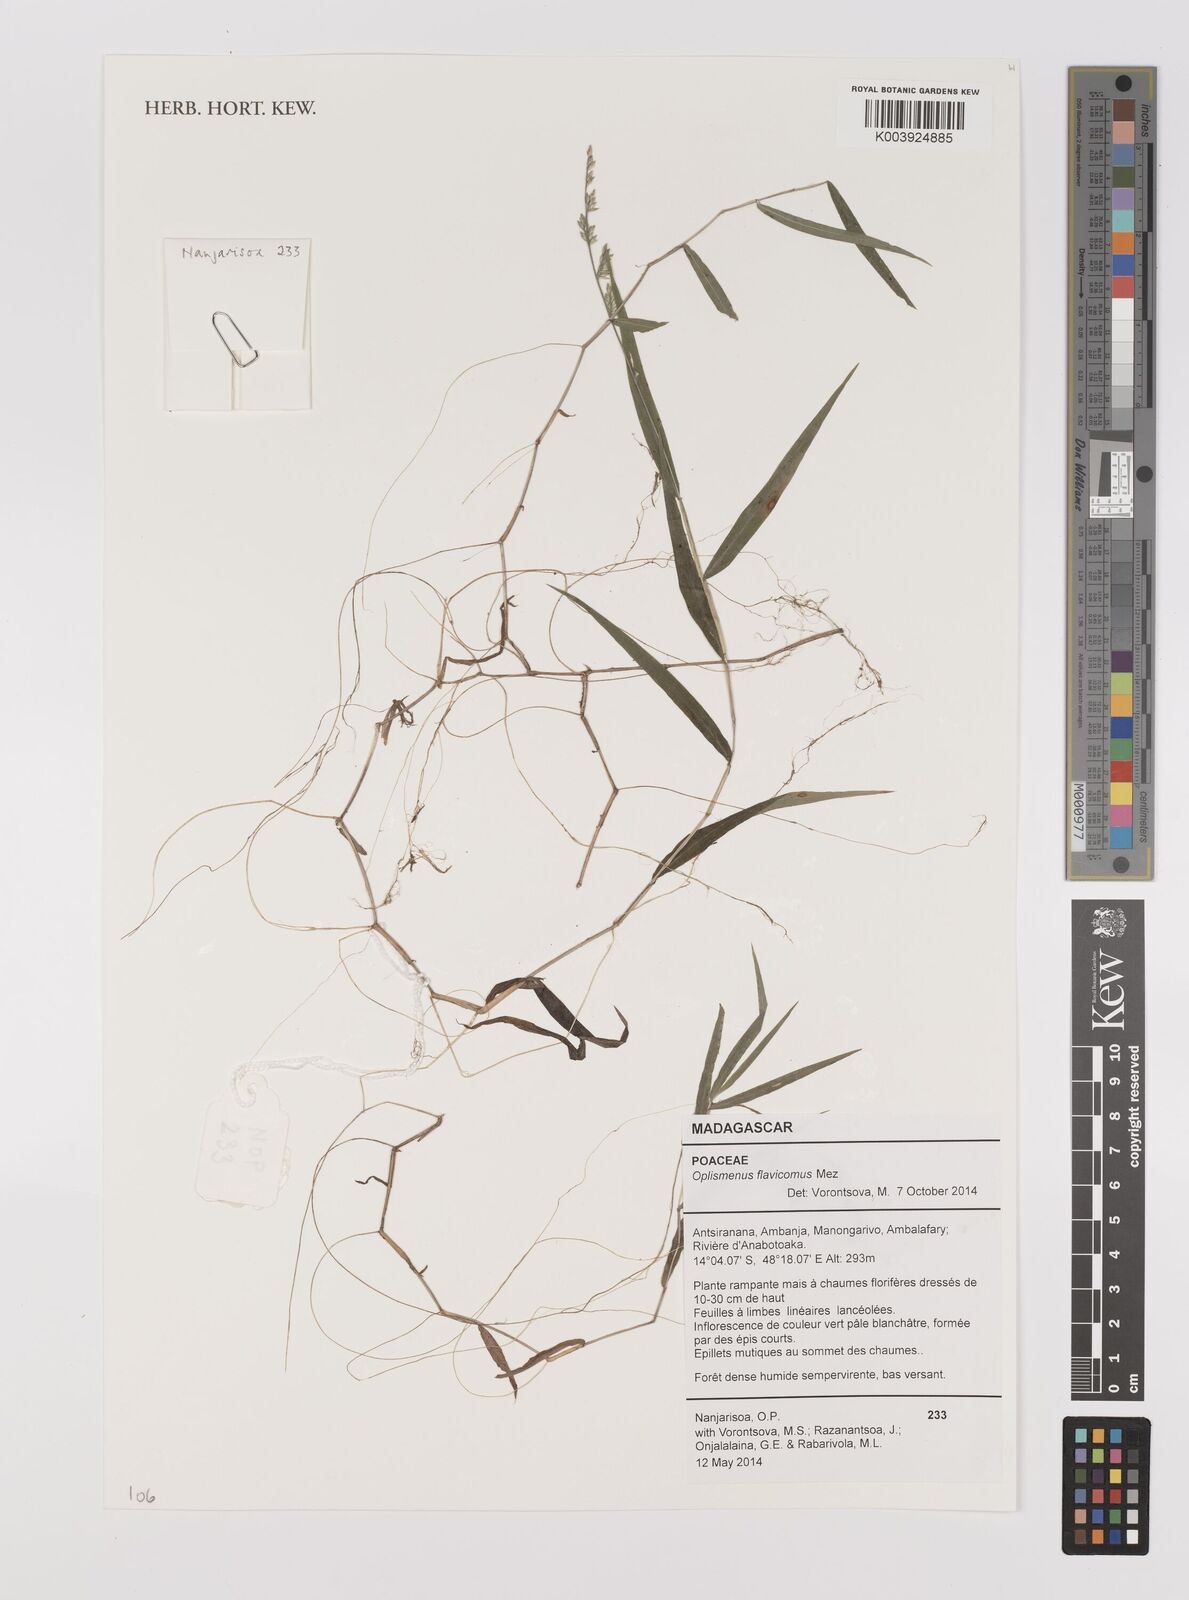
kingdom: Plantae
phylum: Tracheophyta
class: Liliopsida
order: Poales
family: Poaceae
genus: Oplismenus
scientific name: Oplismenus flavicomus
